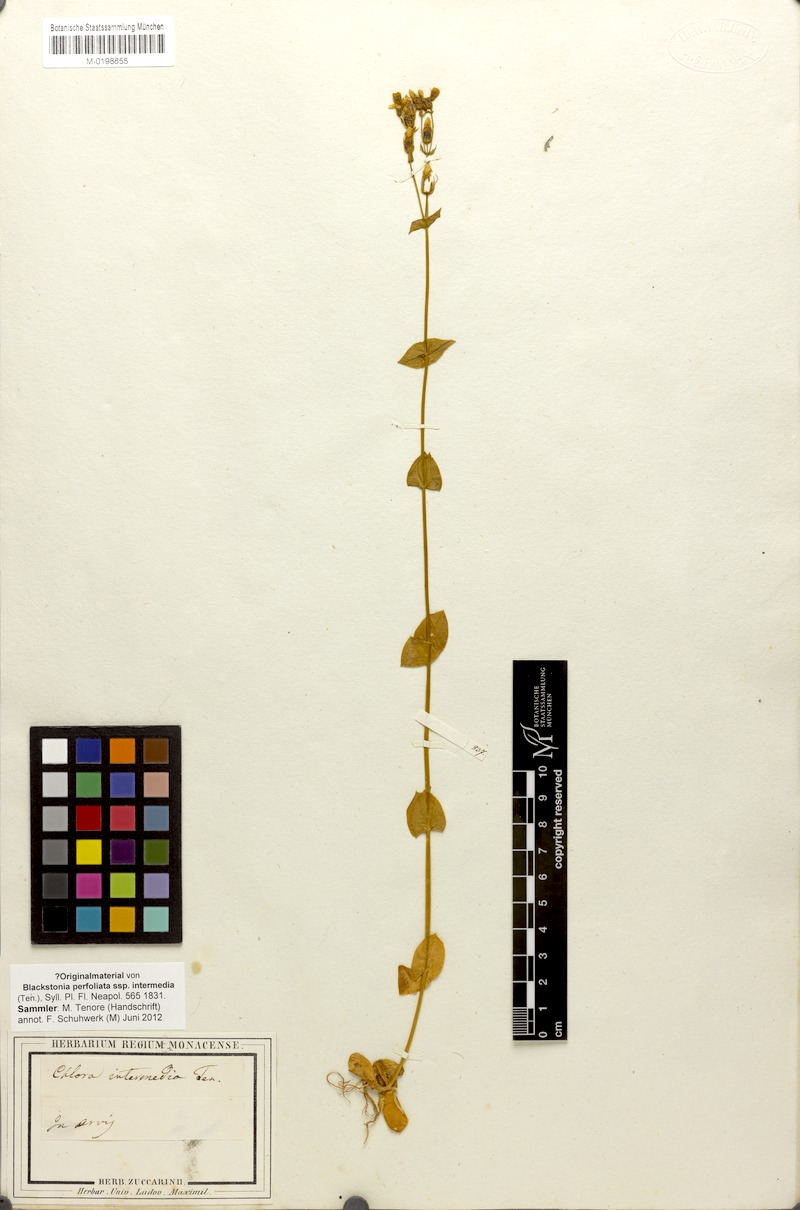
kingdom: Plantae
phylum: Tracheophyta
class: Magnoliopsida
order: Gentianales
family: Gentianaceae
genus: Blackstonia
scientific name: Blackstonia perfoliata
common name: Yellow-wort
